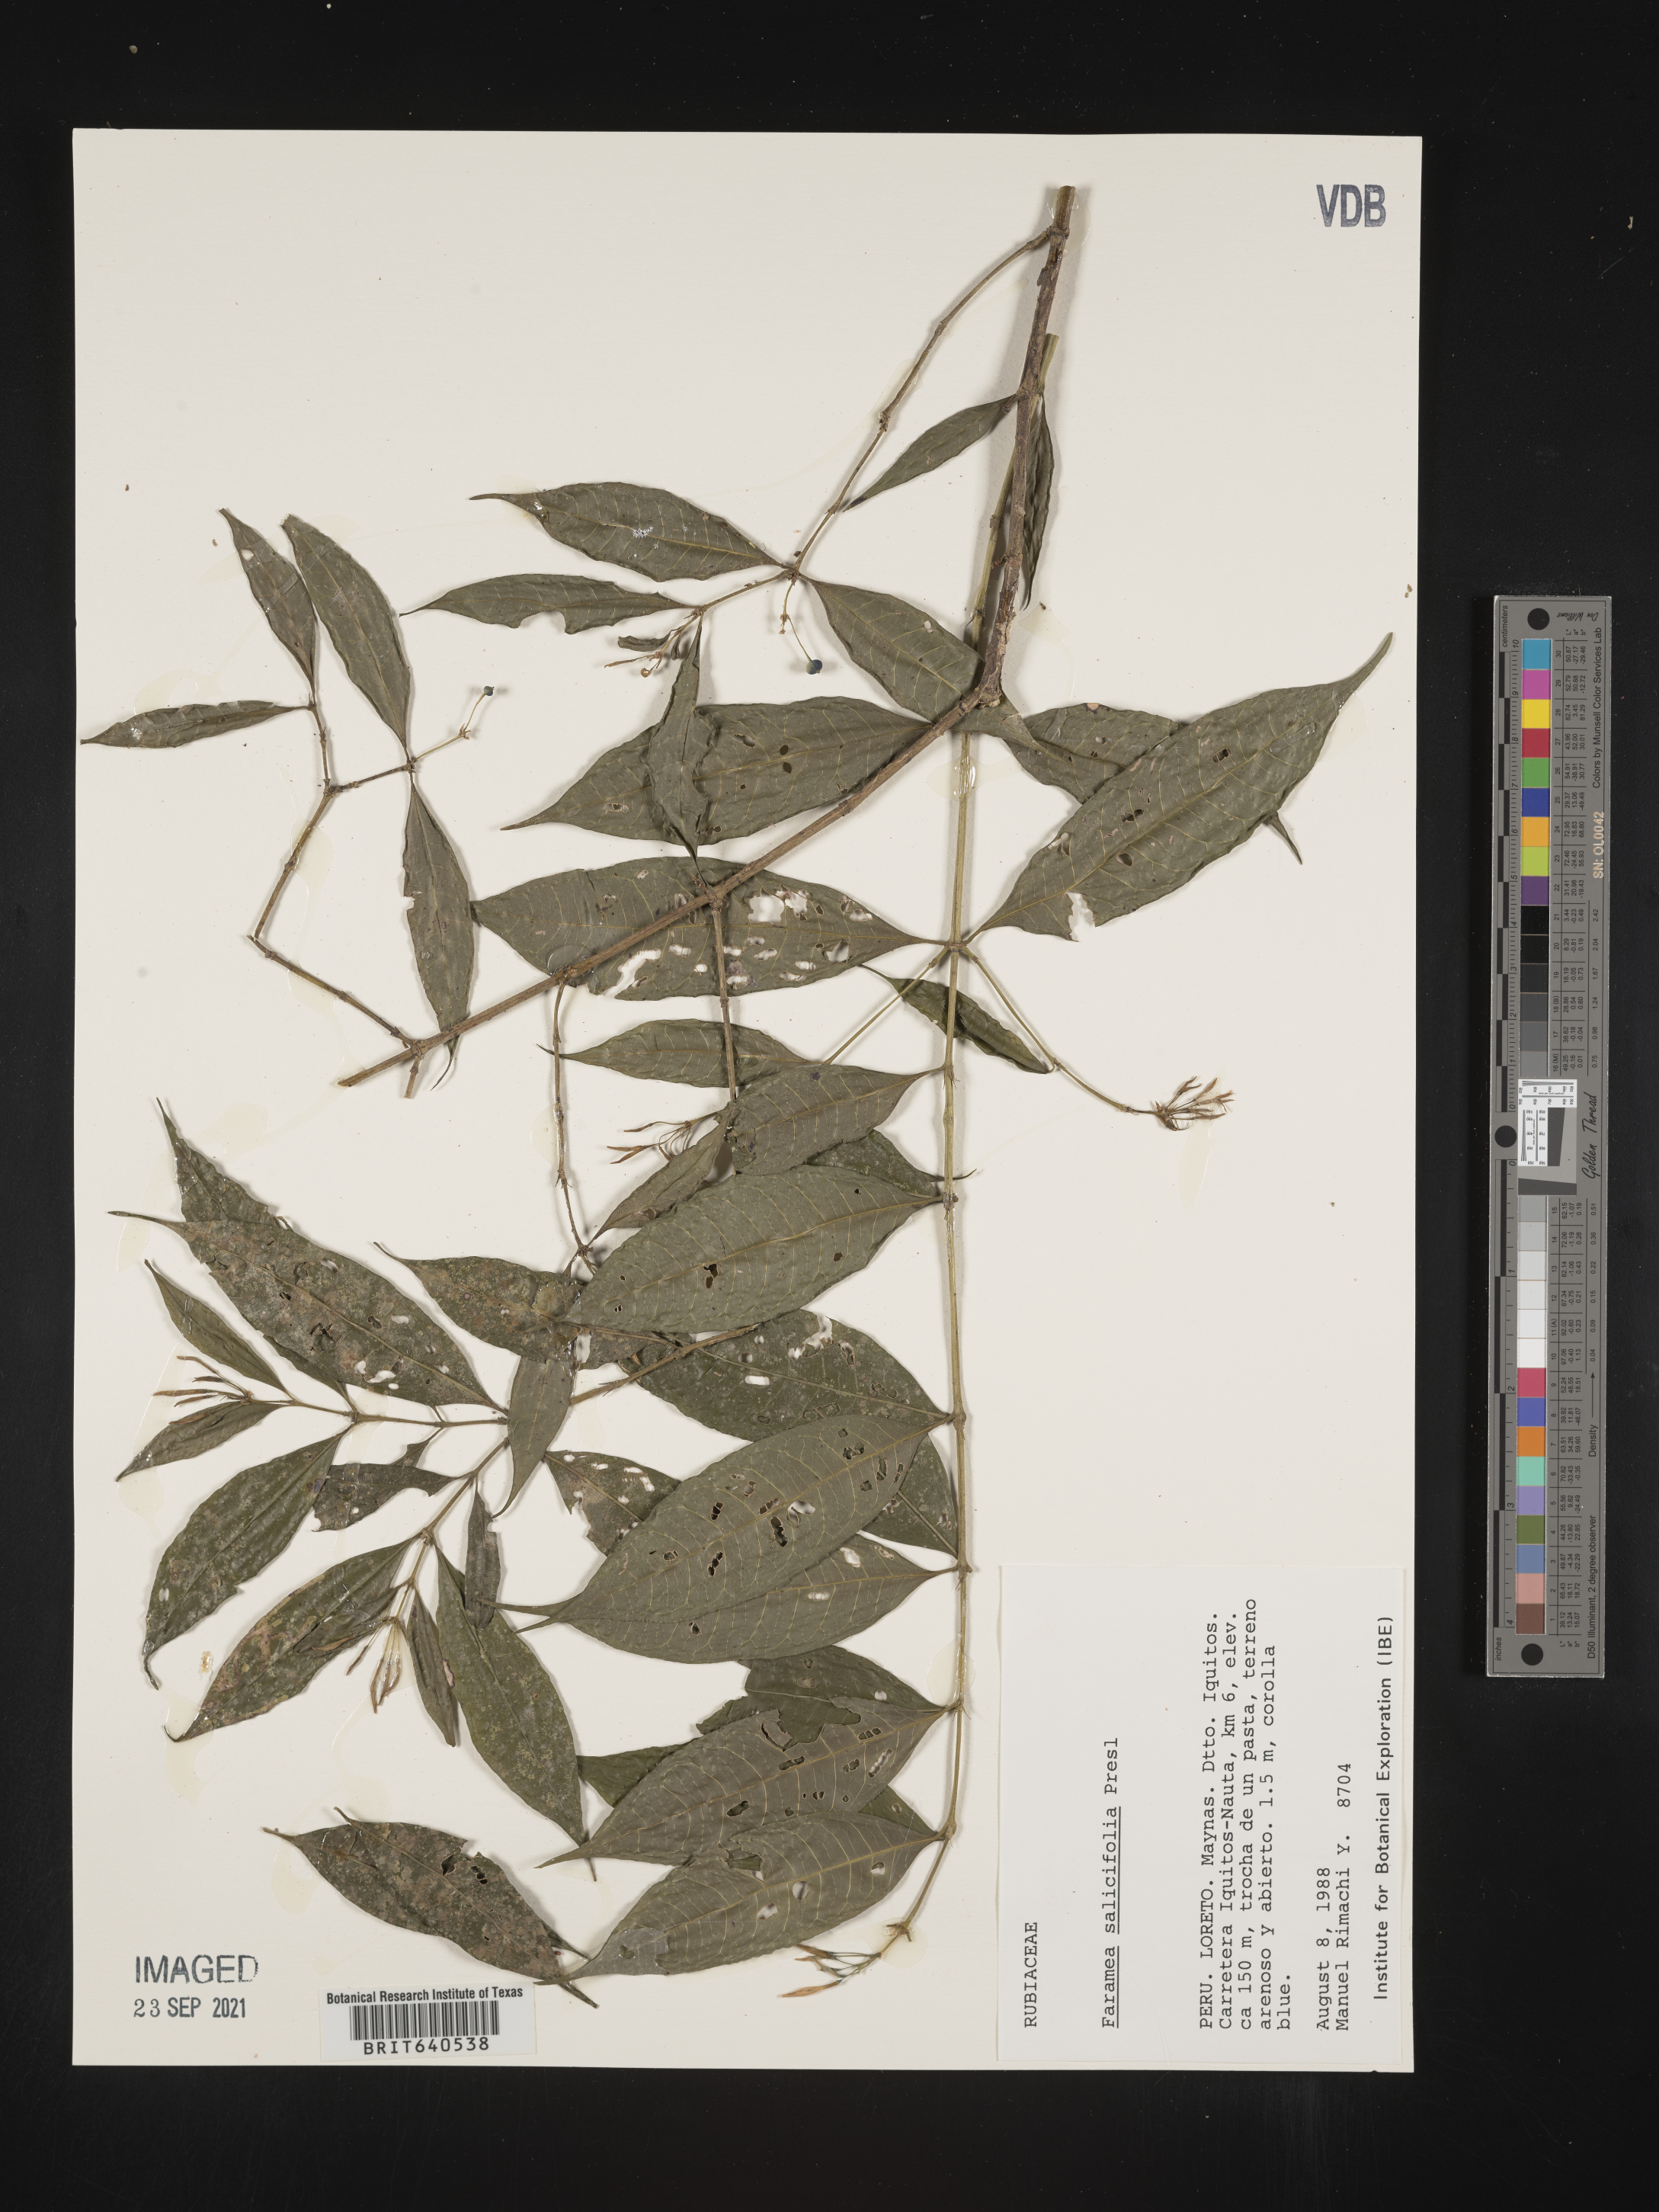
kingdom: Plantae
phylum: Tracheophyta
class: Magnoliopsida
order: Gentianales
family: Rubiaceae
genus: Faramea
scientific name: Faramea
